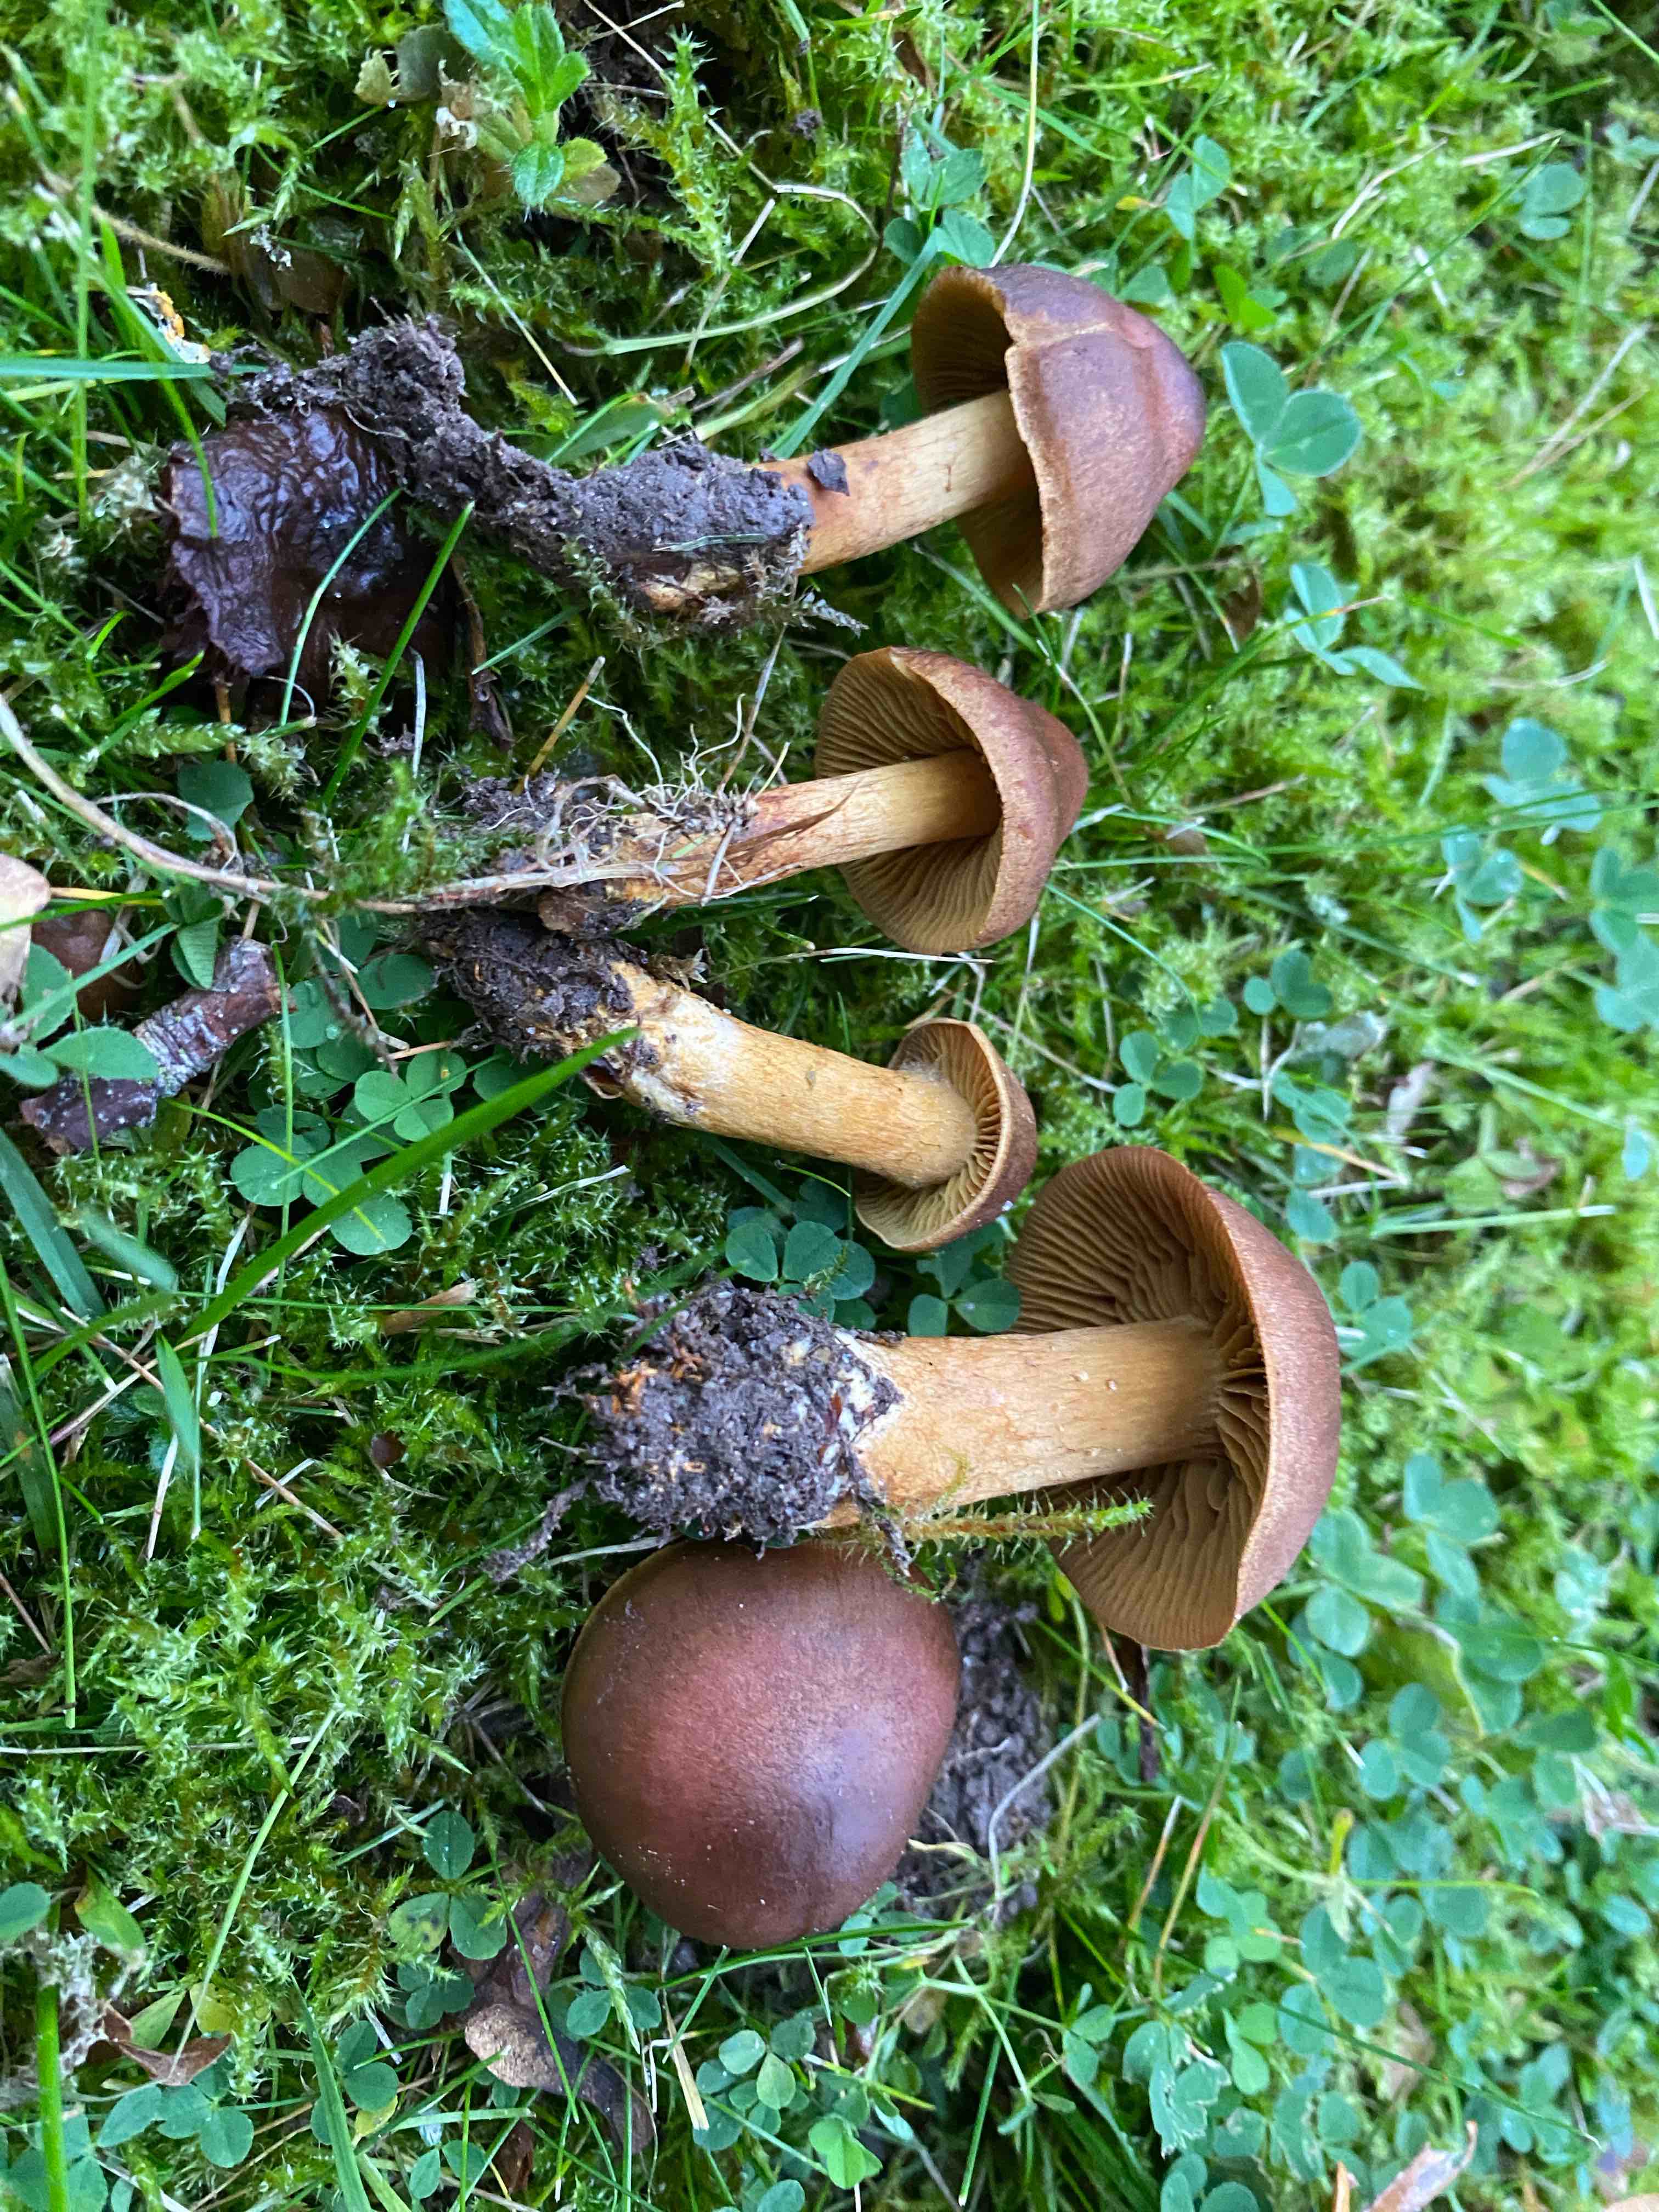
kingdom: Fungi
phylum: Basidiomycota
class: Agaricomycetes
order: Agaricales
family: Cortinariaceae
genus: Cortinarius
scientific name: Cortinarius
